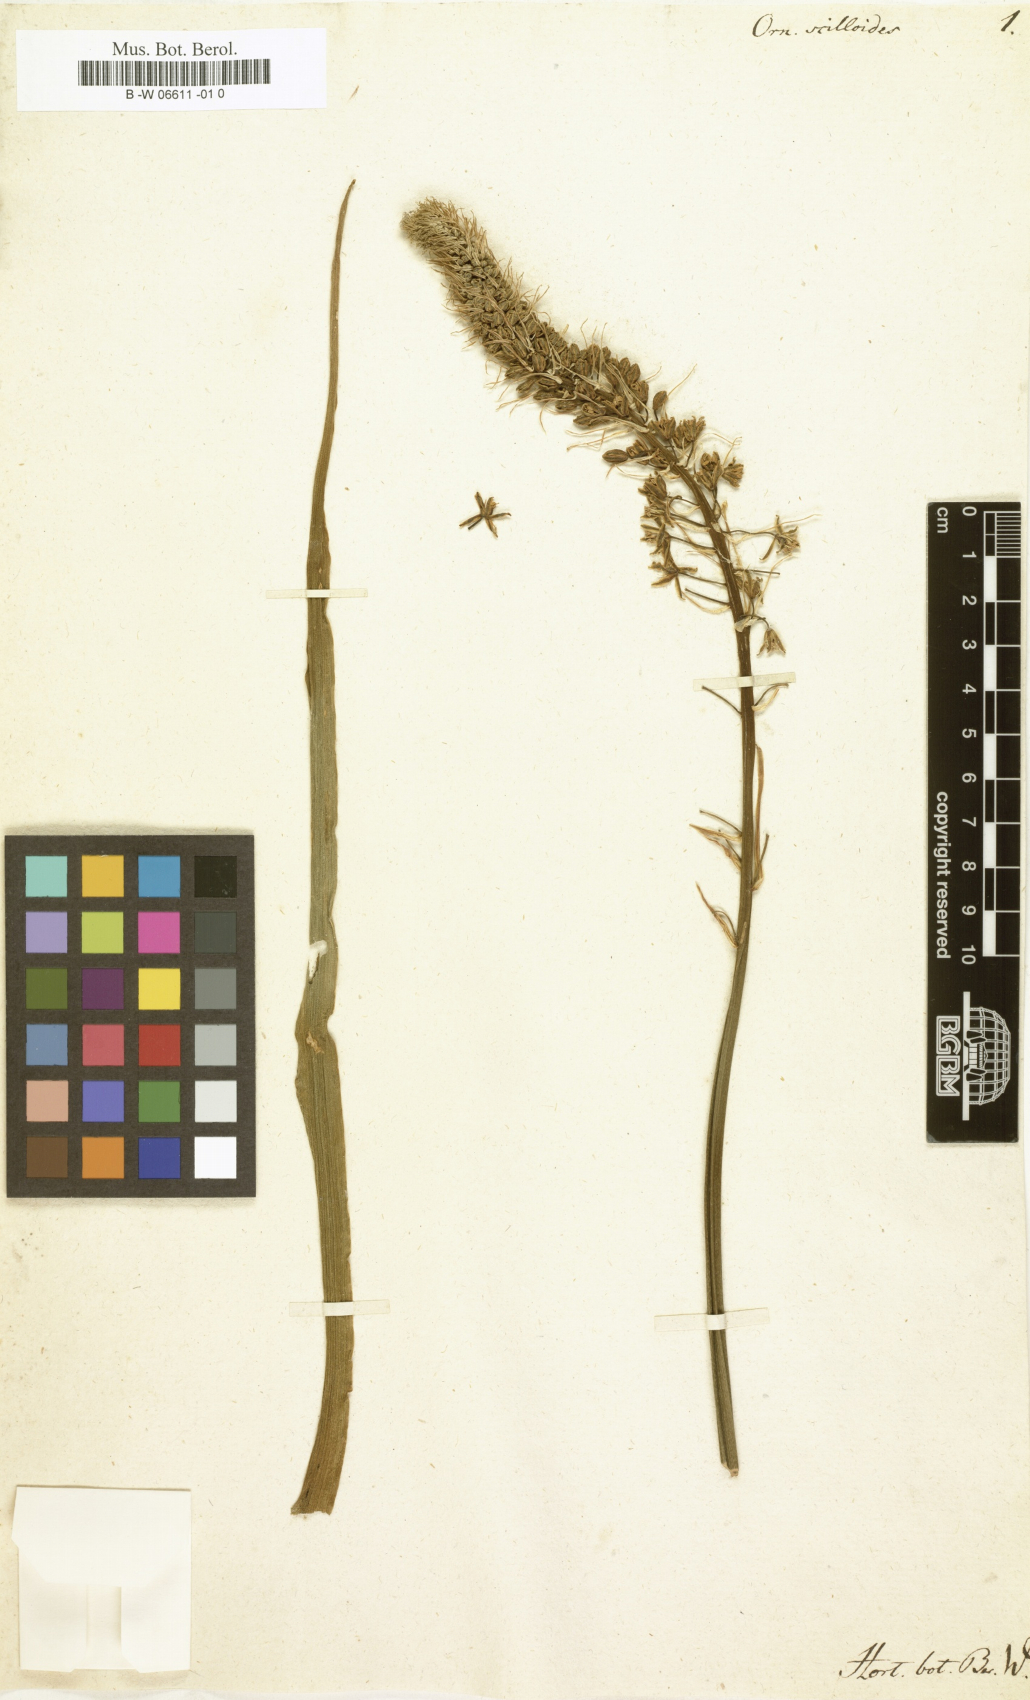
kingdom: Plantae
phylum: Tracheophyta
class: Liliopsida
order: Asparagales
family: Asparagaceae
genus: Albuca
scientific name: Albuca bracteata
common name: Sea-onion
